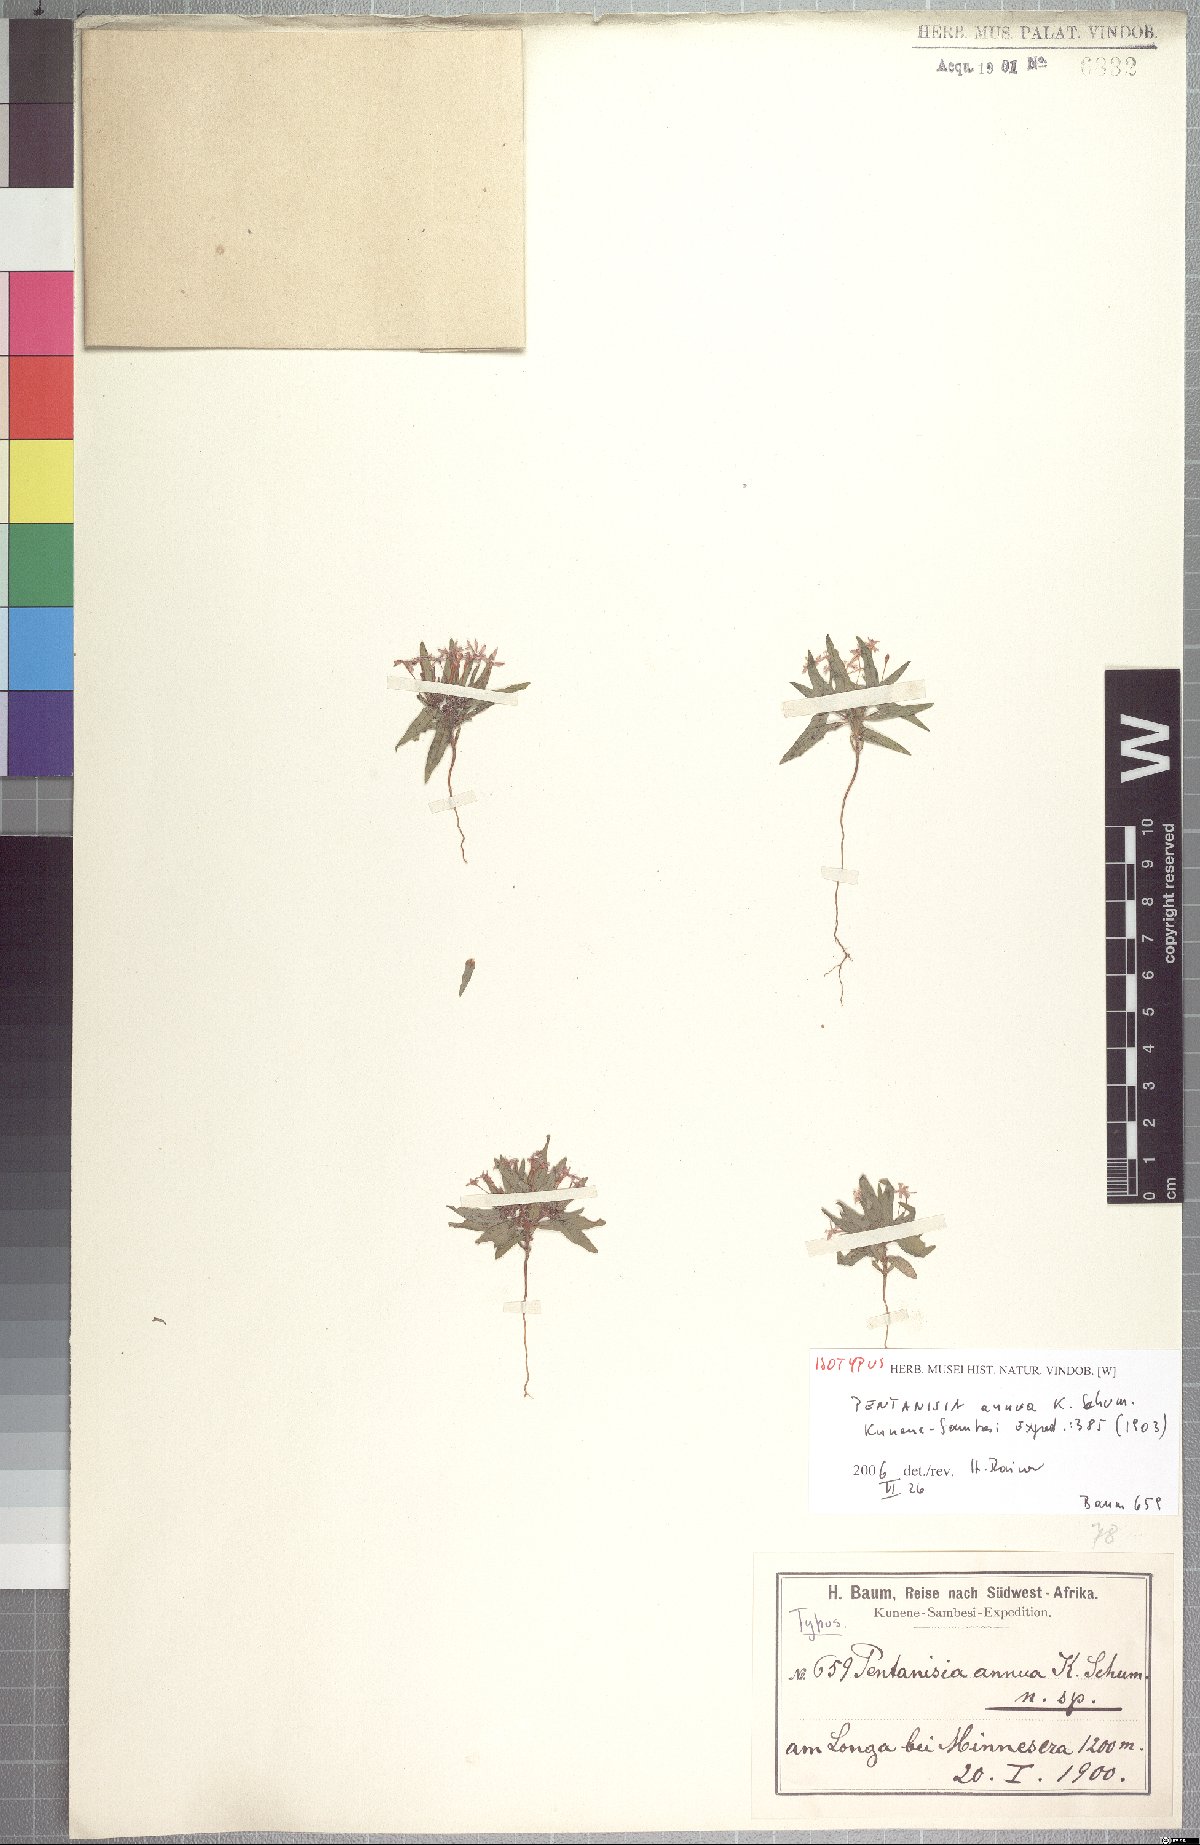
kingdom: Plantae
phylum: Tracheophyta
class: Magnoliopsida
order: Gentianales
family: Rubiaceae
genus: Pentanisia
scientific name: Pentanisia annua
